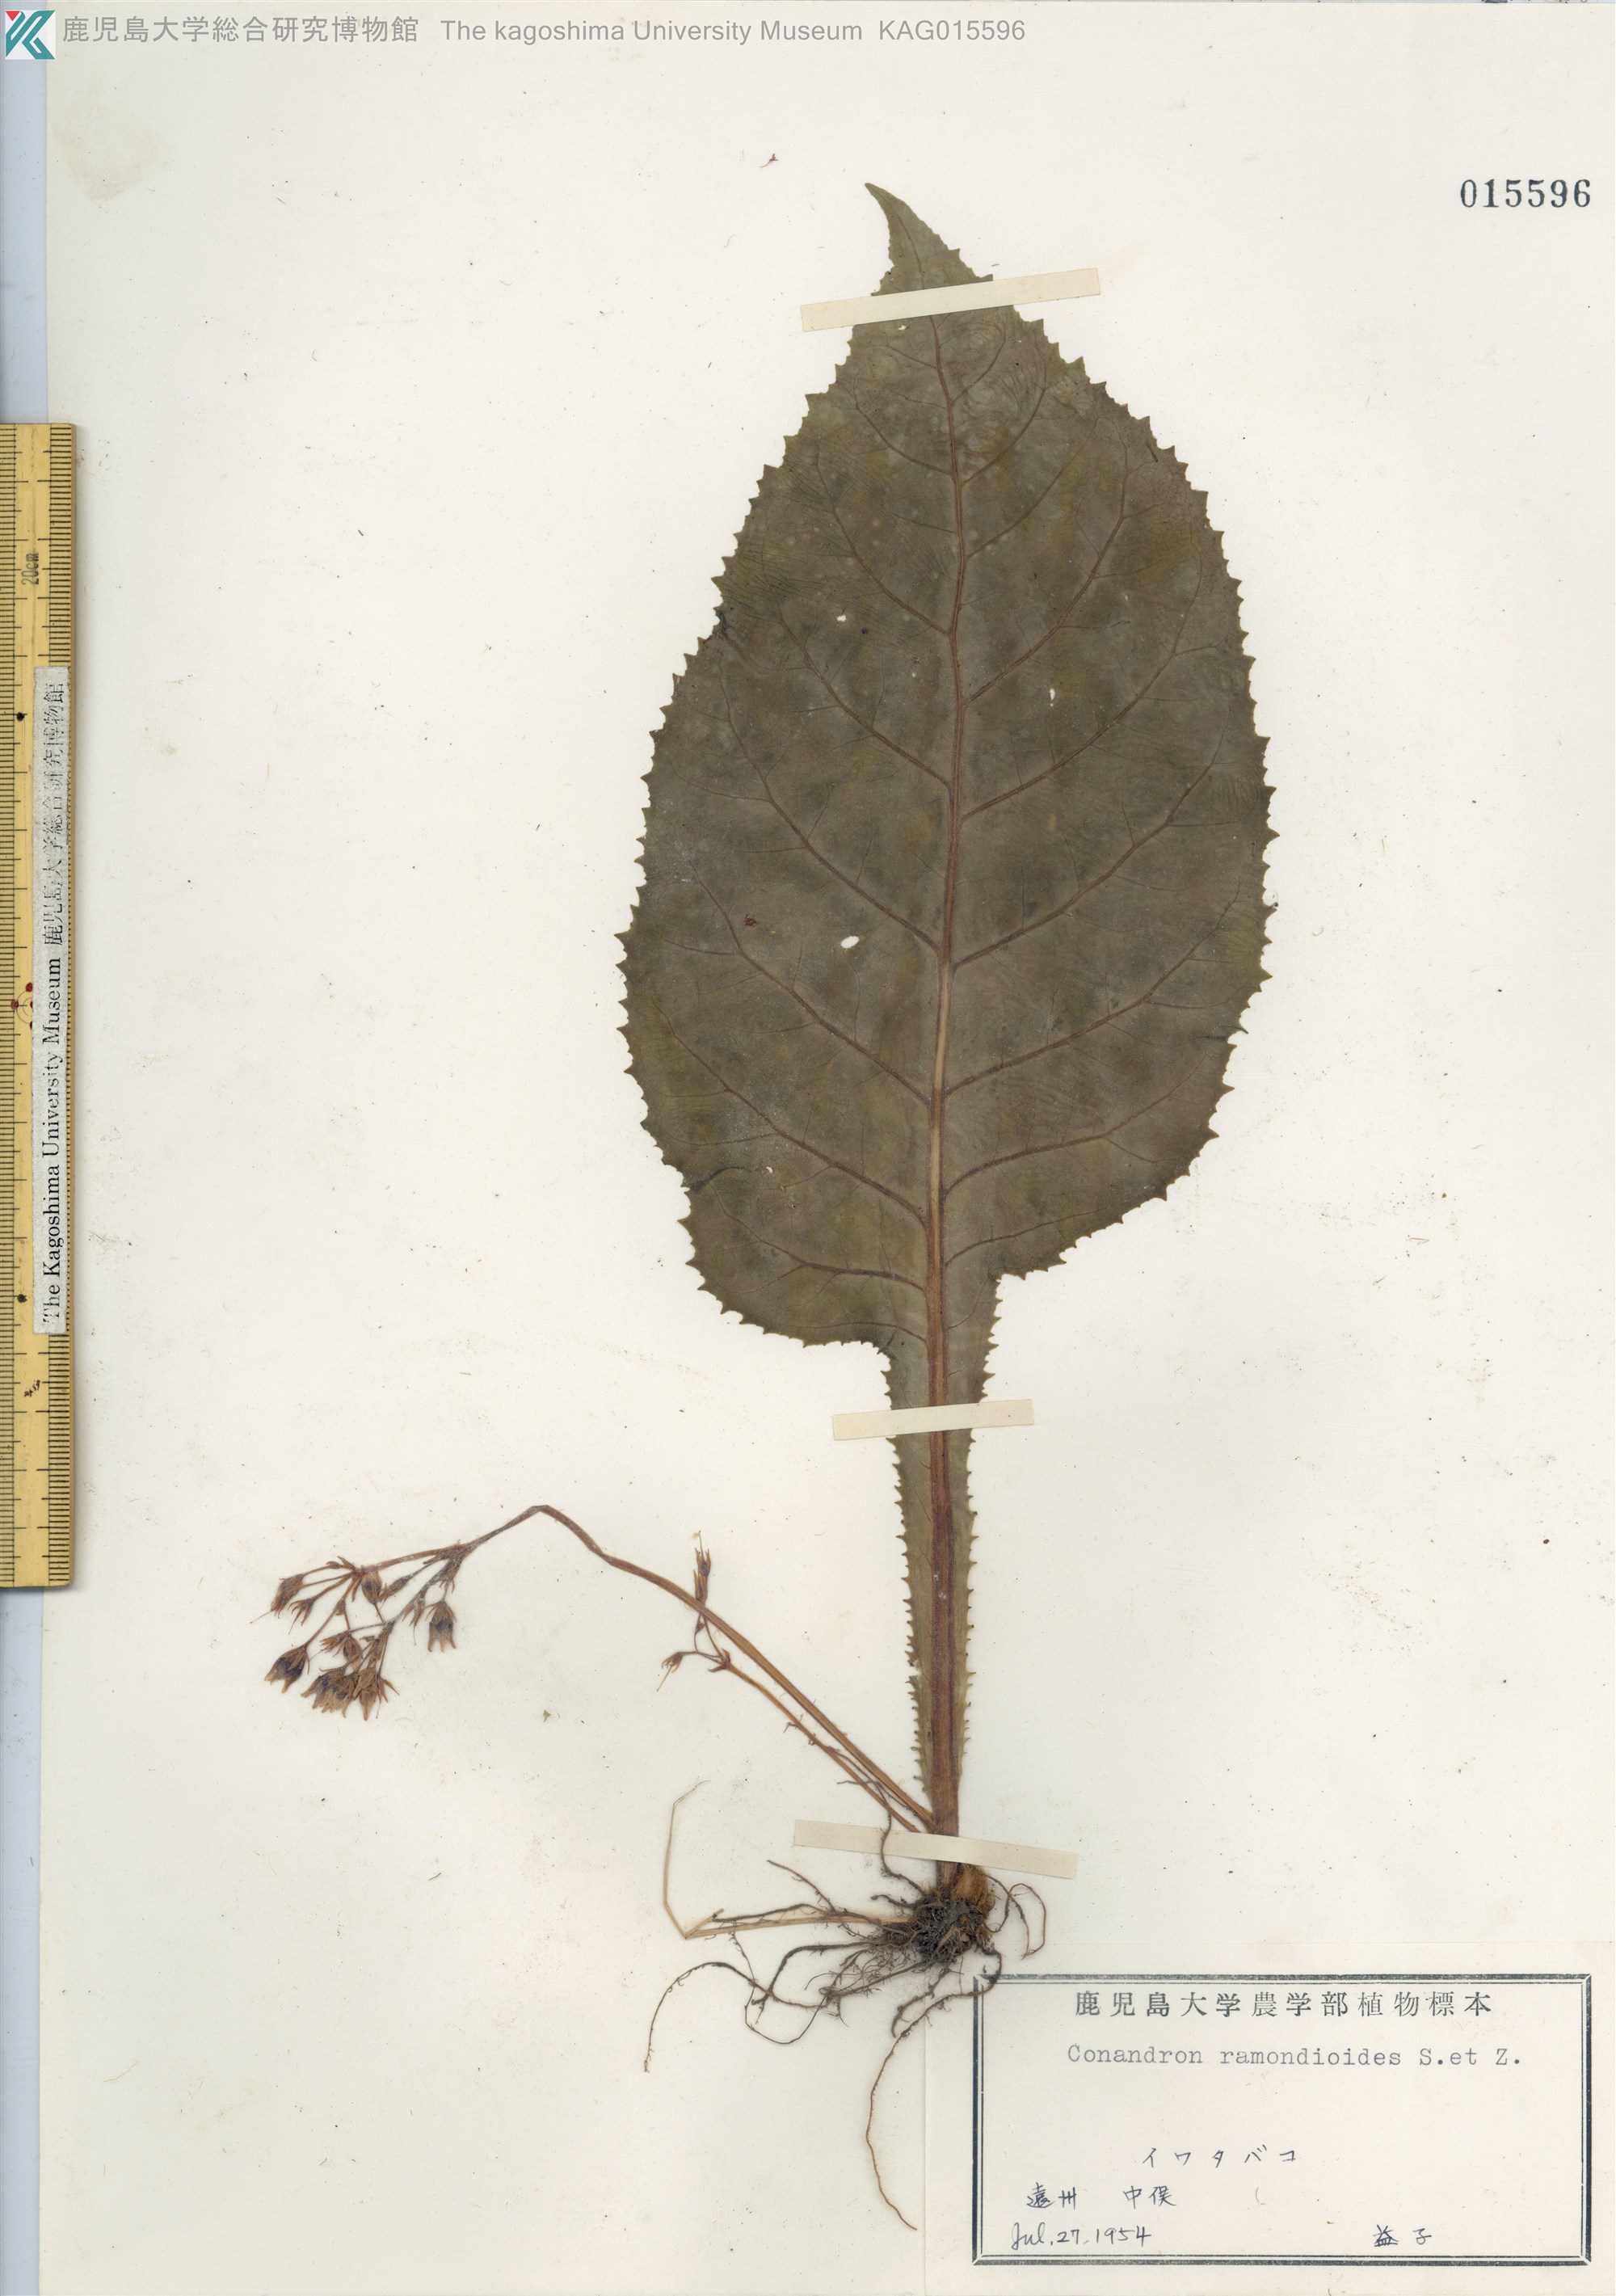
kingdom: Plantae
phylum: Tracheophyta
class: Magnoliopsida
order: Lamiales
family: Gesneriaceae
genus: Conandron
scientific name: Conandron ramondioides
